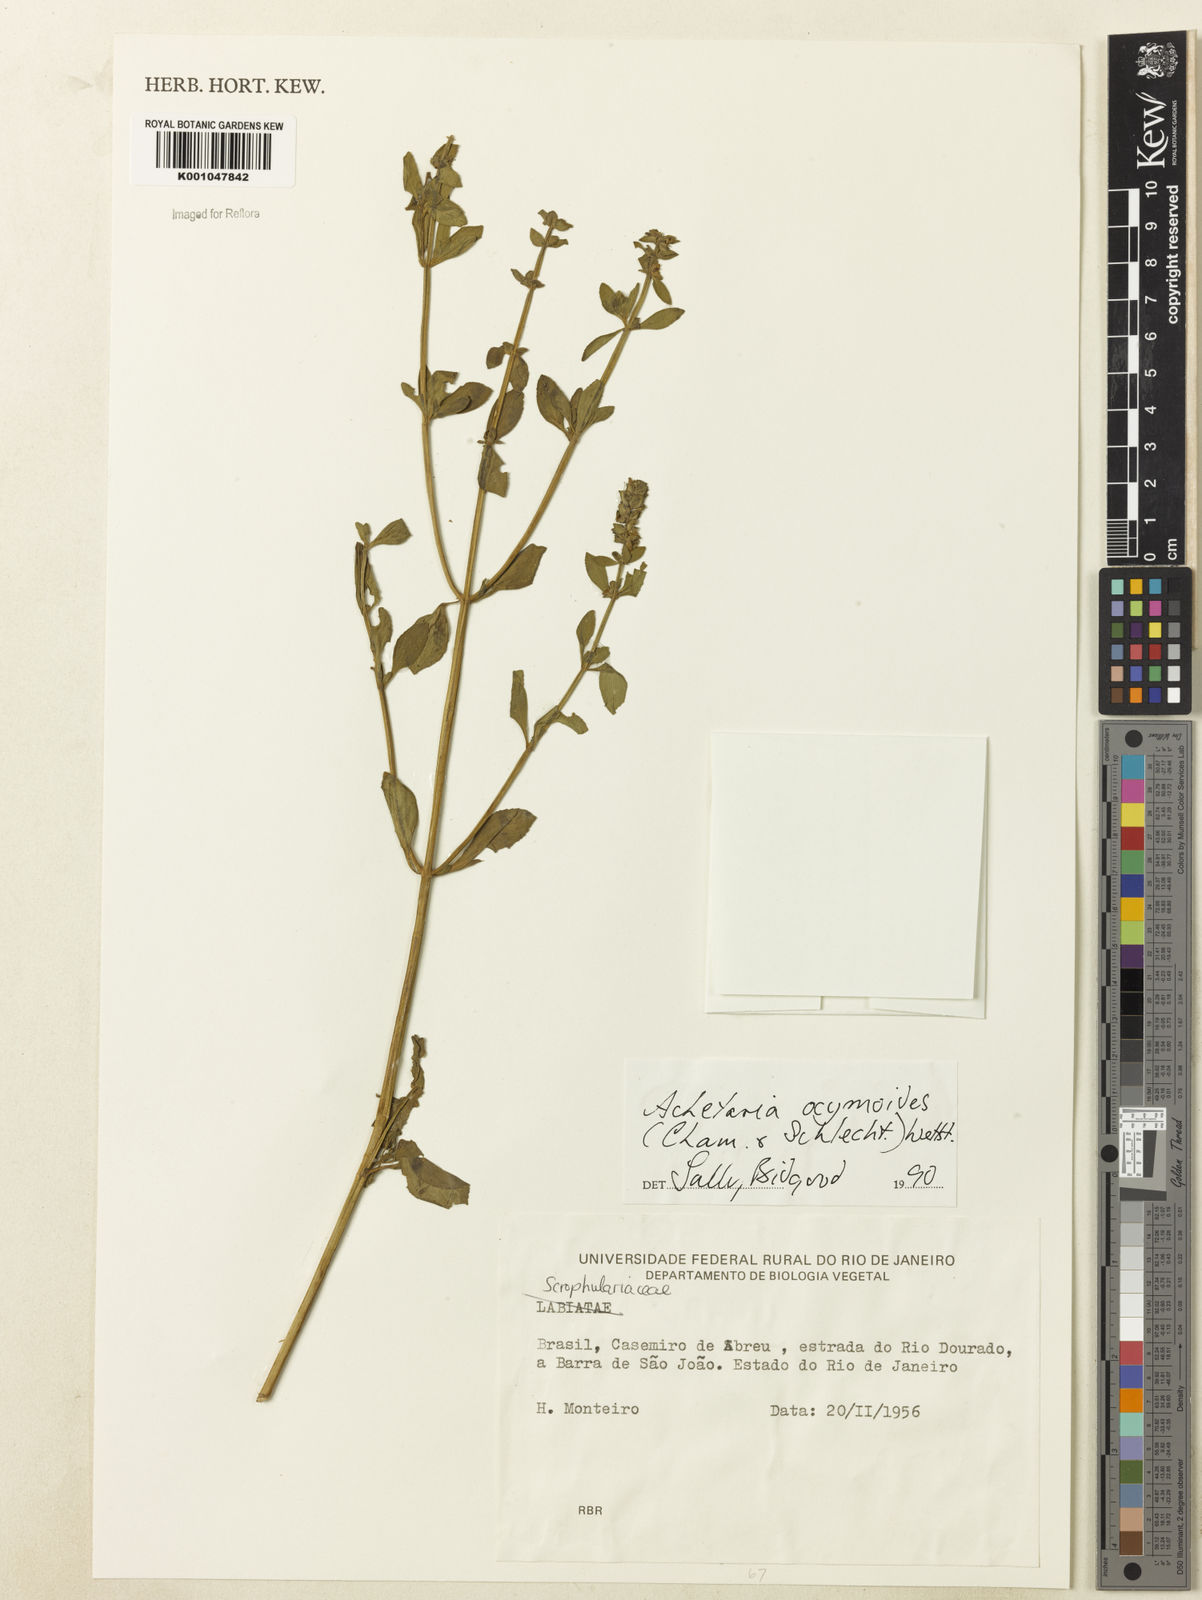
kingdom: Plantae
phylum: Tracheophyta
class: Magnoliopsida
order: Lamiales
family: Plantaginaceae
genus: Matourea
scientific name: Matourea ocymoides
